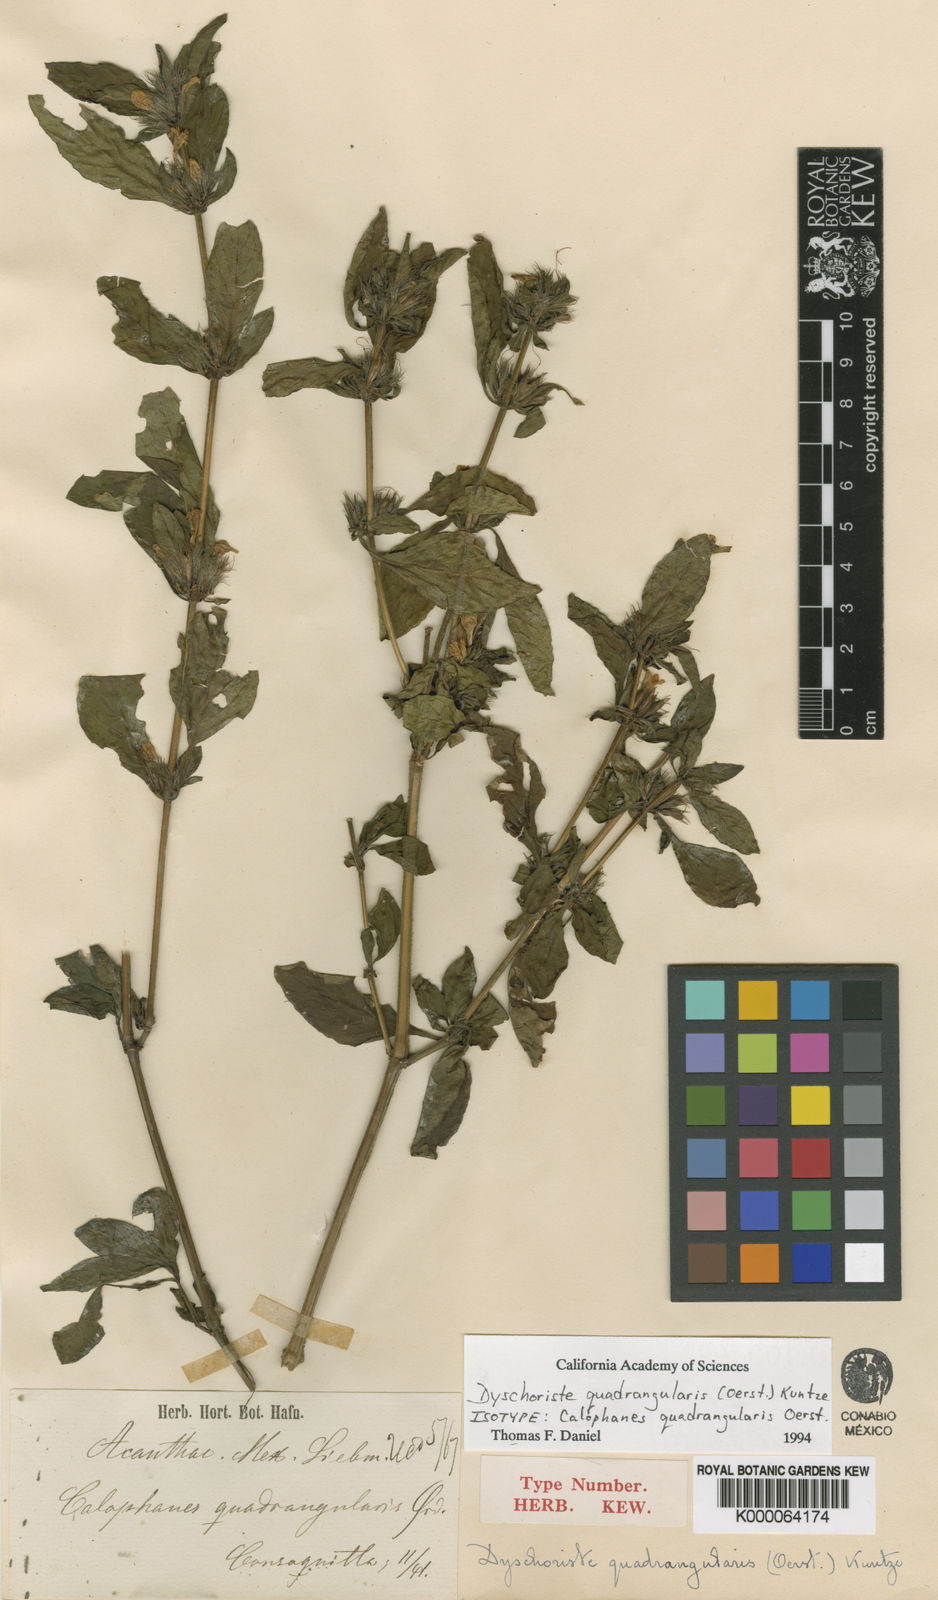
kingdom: Plantae
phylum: Tracheophyta
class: Magnoliopsida
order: Lamiales
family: Acanthaceae
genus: Dyschoriste
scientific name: Dyschoriste quadrangularis
